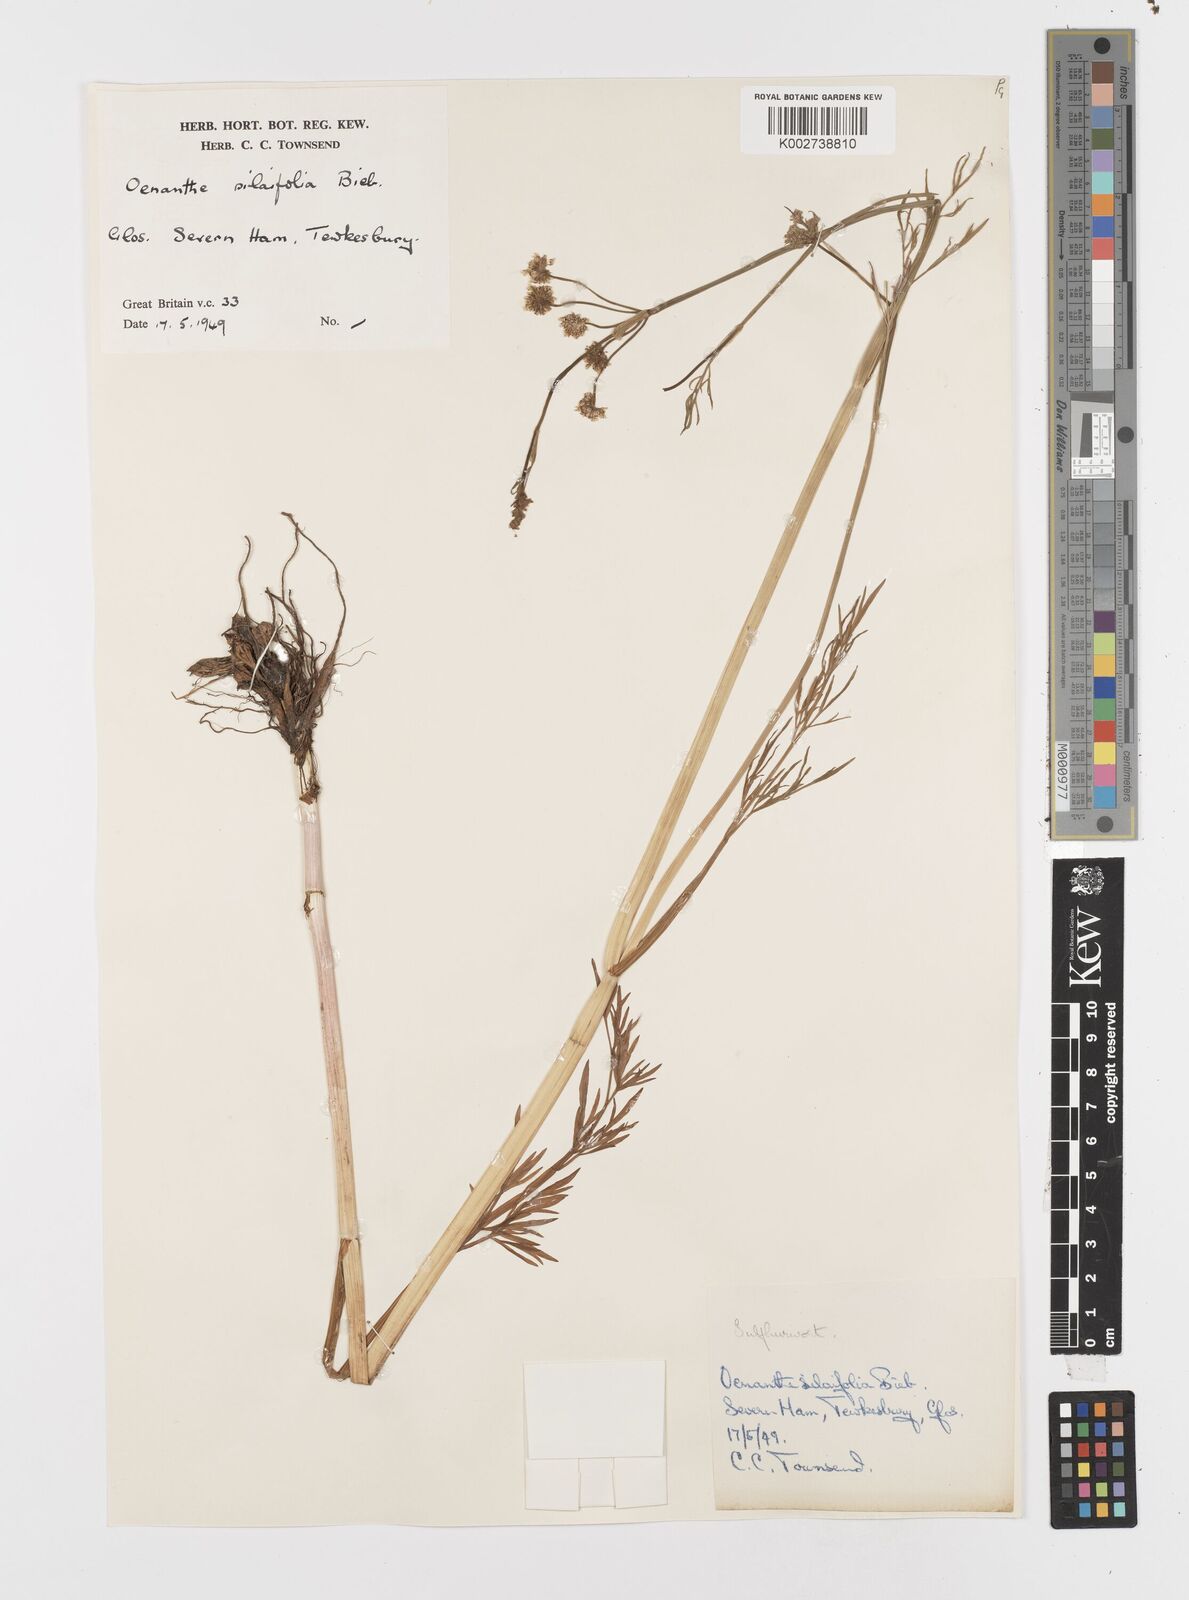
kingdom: Plantae
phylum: Tracheophyta
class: Magnoliopsida
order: Apiales
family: Apiaceae
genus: Oenanthe
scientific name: Oenanthe silaifolia
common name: Narrow-leaved water-dropwort
